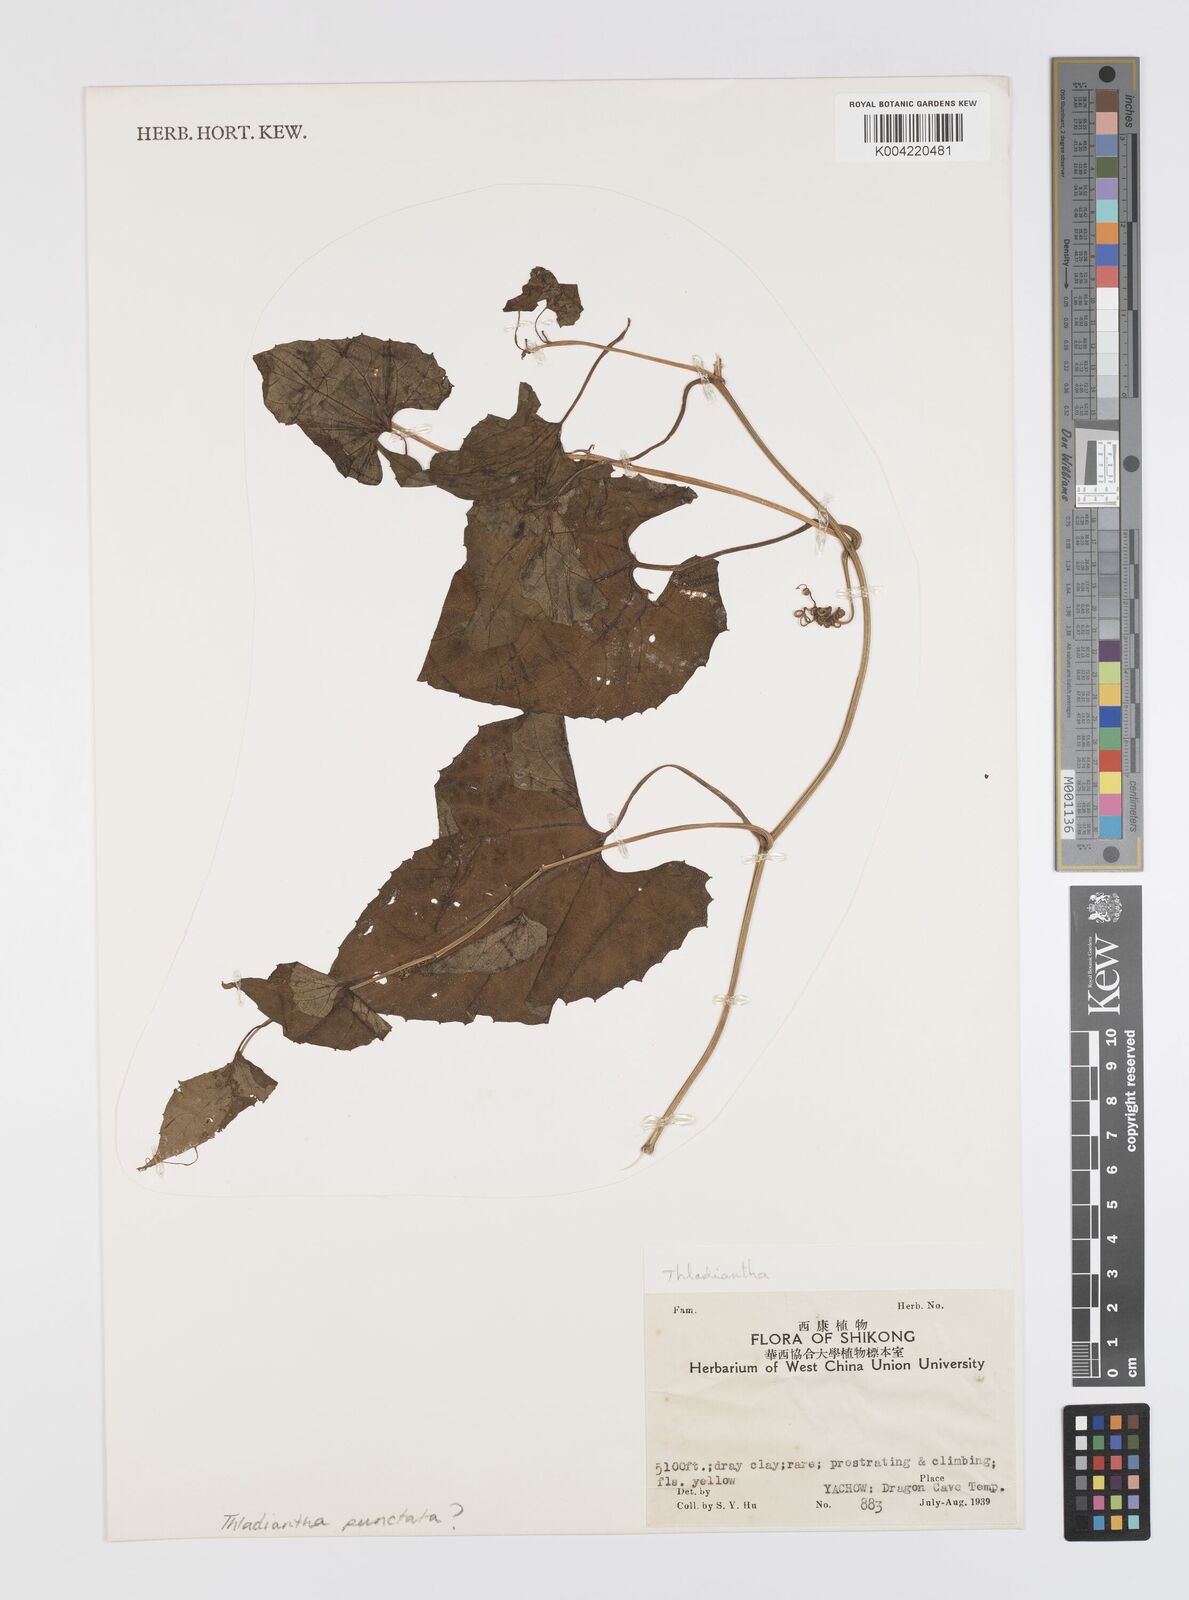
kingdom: Plantae
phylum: Tracheophyta
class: Magnoliopsida
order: Cucurbitales
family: Cucurbitaceae
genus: Thladiantha
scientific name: Thladiantha punctata
